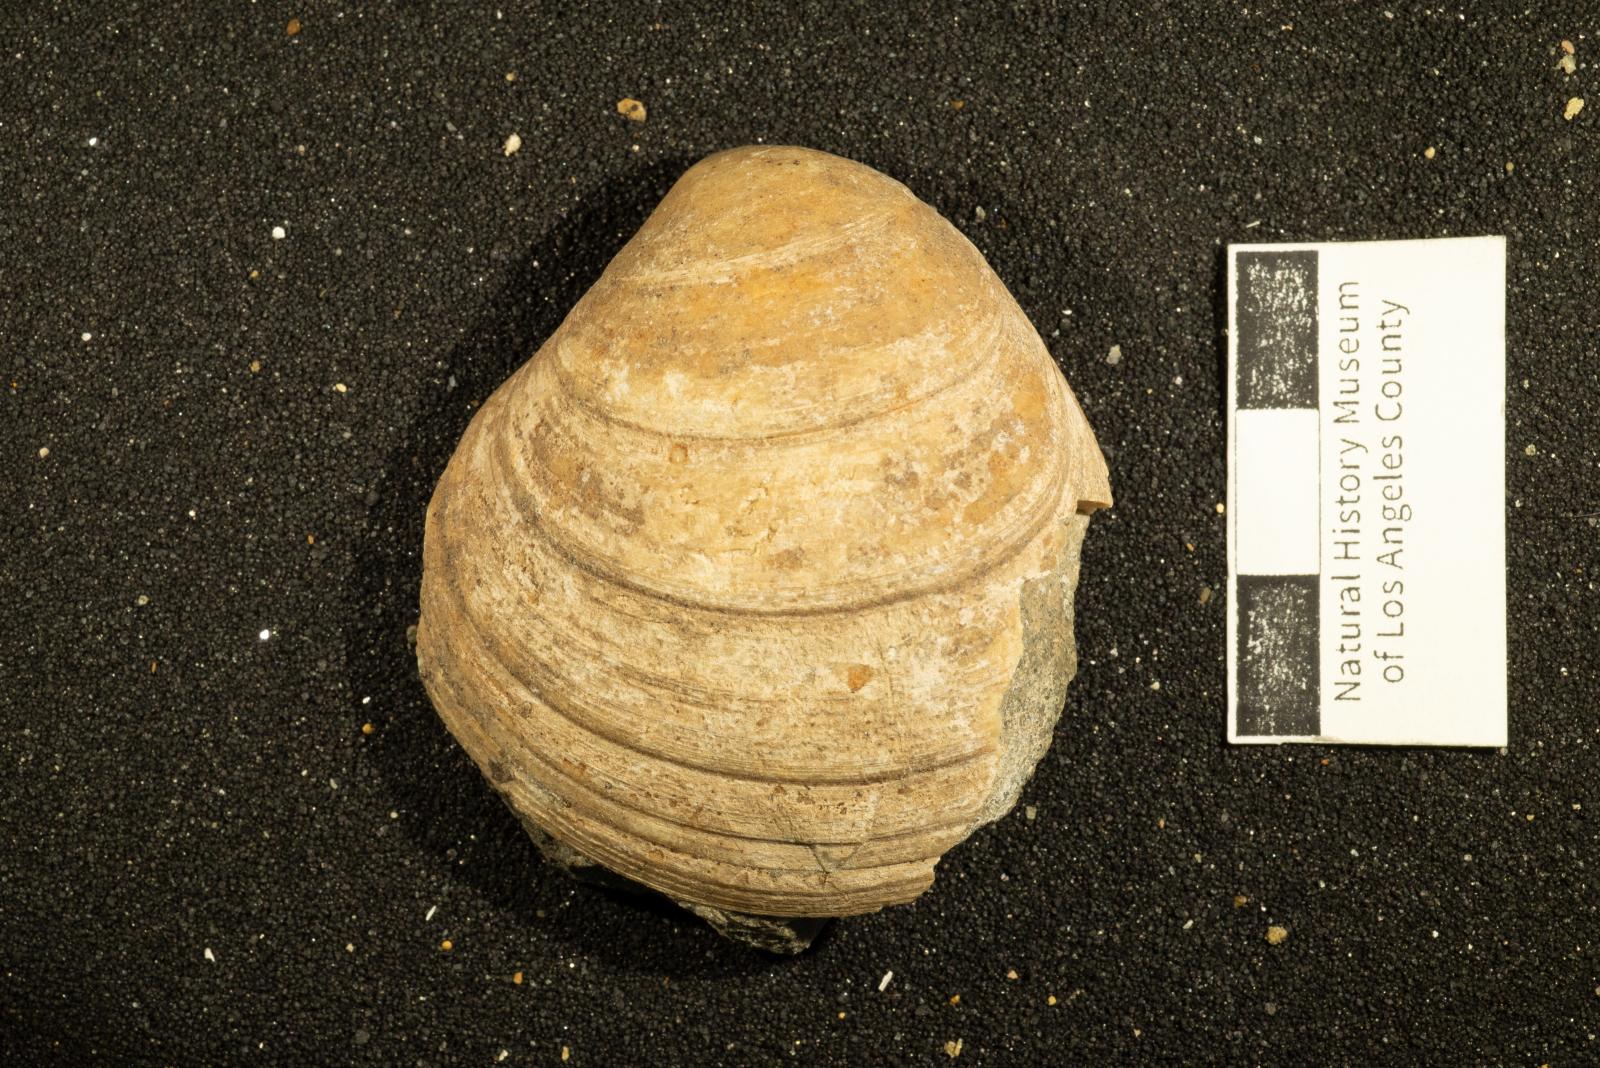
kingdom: Animalia
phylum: Mollusca
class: Bivalvia
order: Venerida
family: Veneridae
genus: Calva
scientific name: Calva spissa
